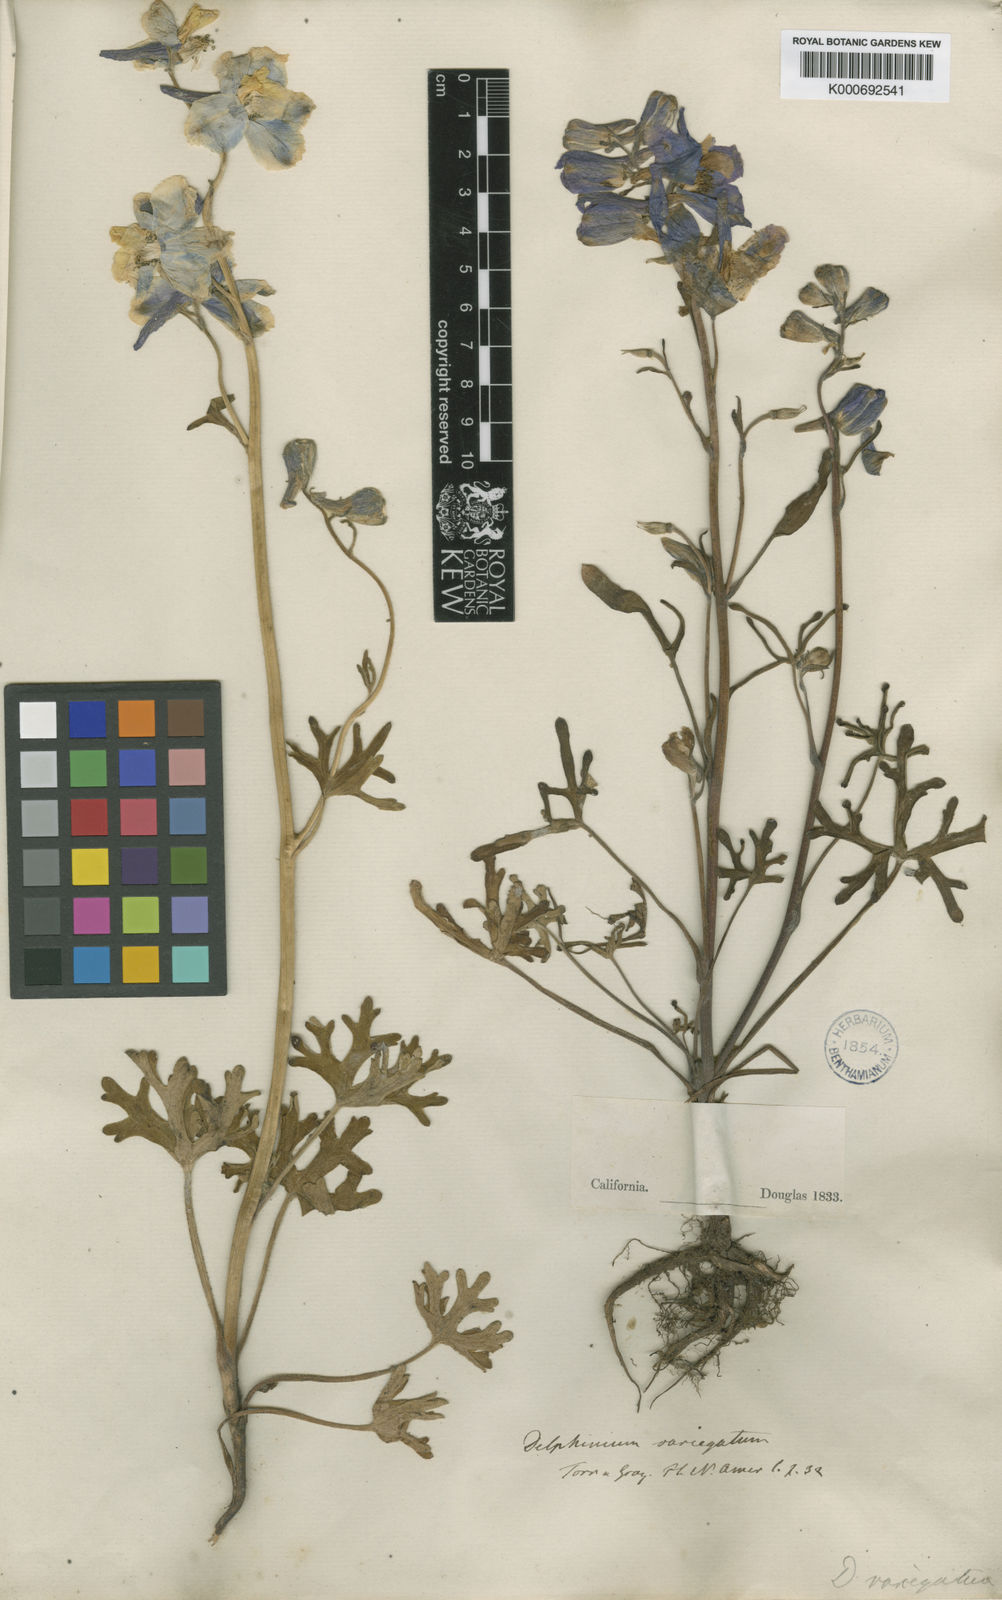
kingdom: Plantae
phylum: Tracheophyta
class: Magnoliopsida
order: Ranunculales
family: Ranunculaceae
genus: Delphinium
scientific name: Delphinium variegatum
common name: Royal larkspur
